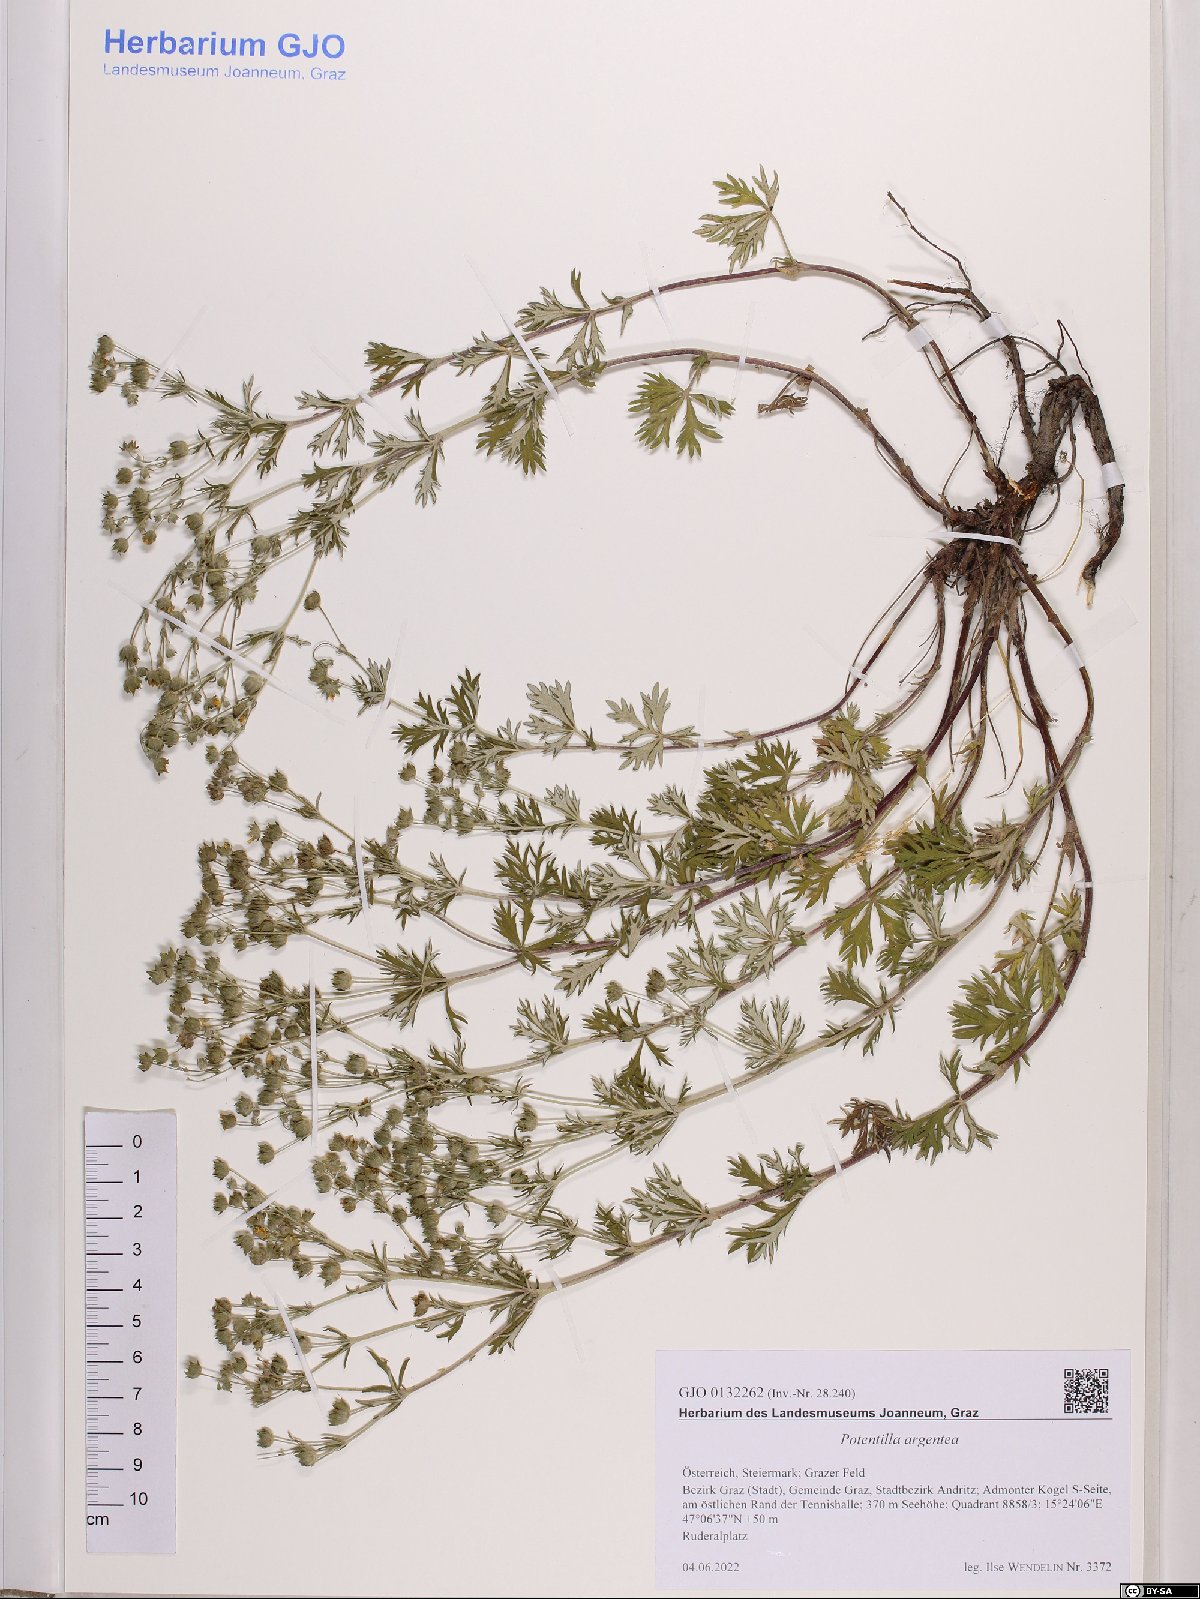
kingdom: Plantae
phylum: Tracheophyta
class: Magnoliopsida
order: Rosales
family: Rosaceae
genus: Potentilla
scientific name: Potentilla argentea
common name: Hoary cinquefoil
